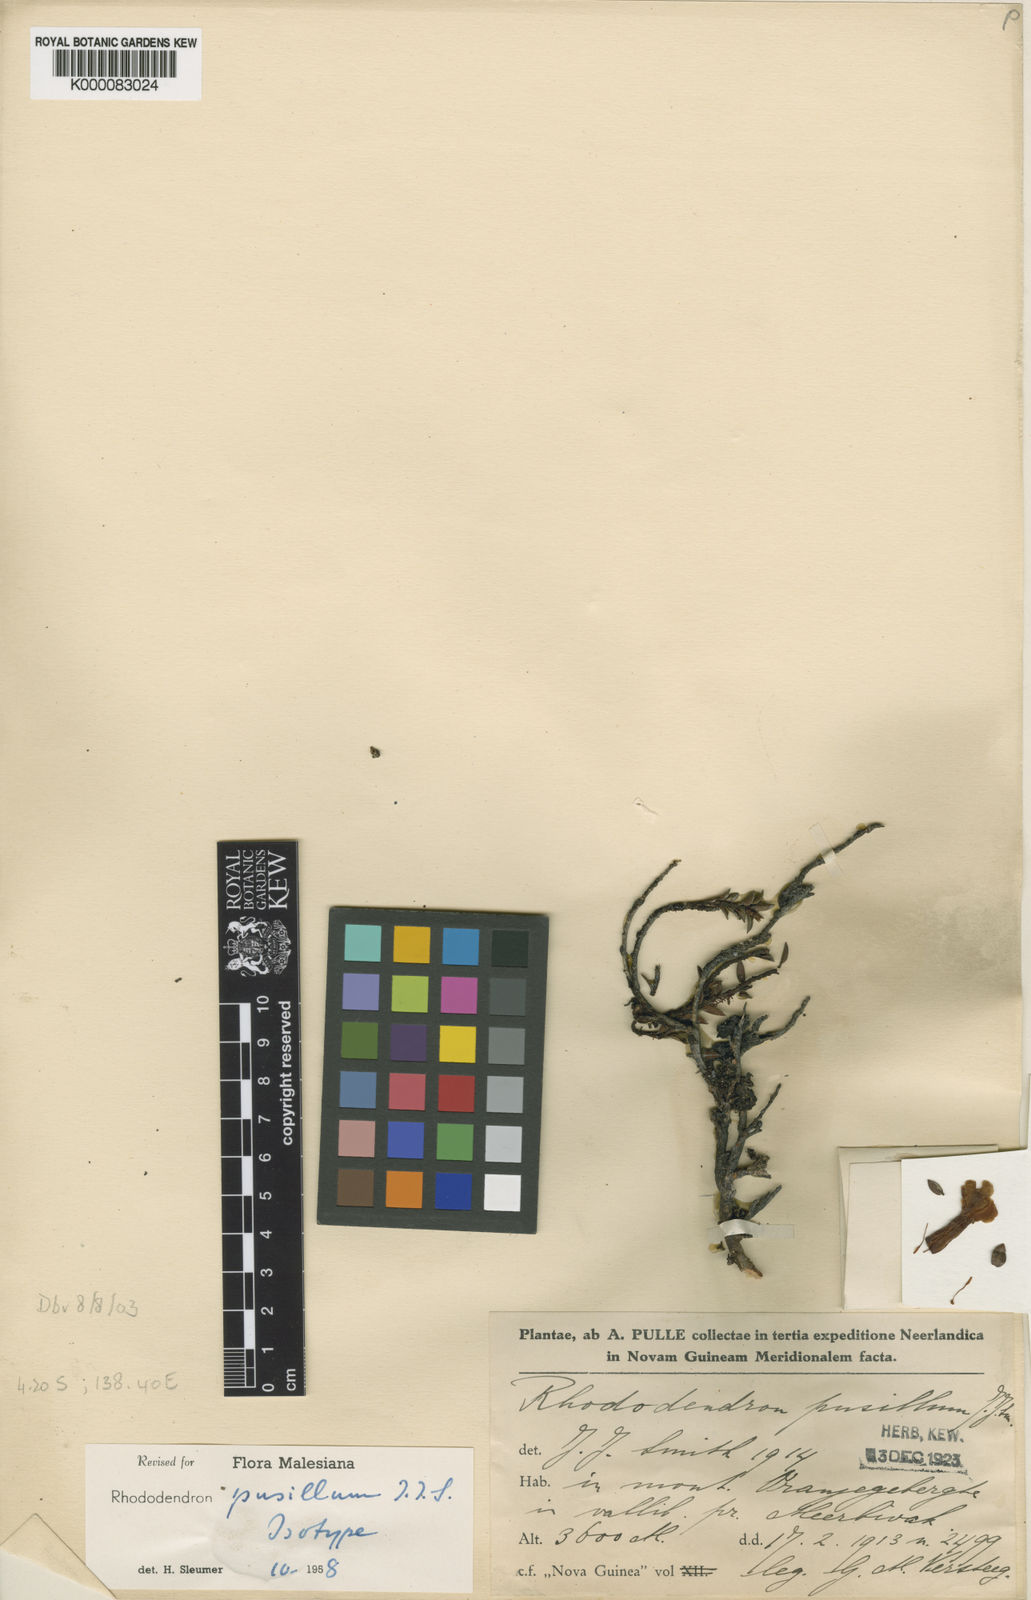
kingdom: Plantae
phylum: Tracheophyta
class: Magnoliopsida
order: Ericales
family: Ericaceae
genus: Rhododendron
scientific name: Rhododendron pusillum
